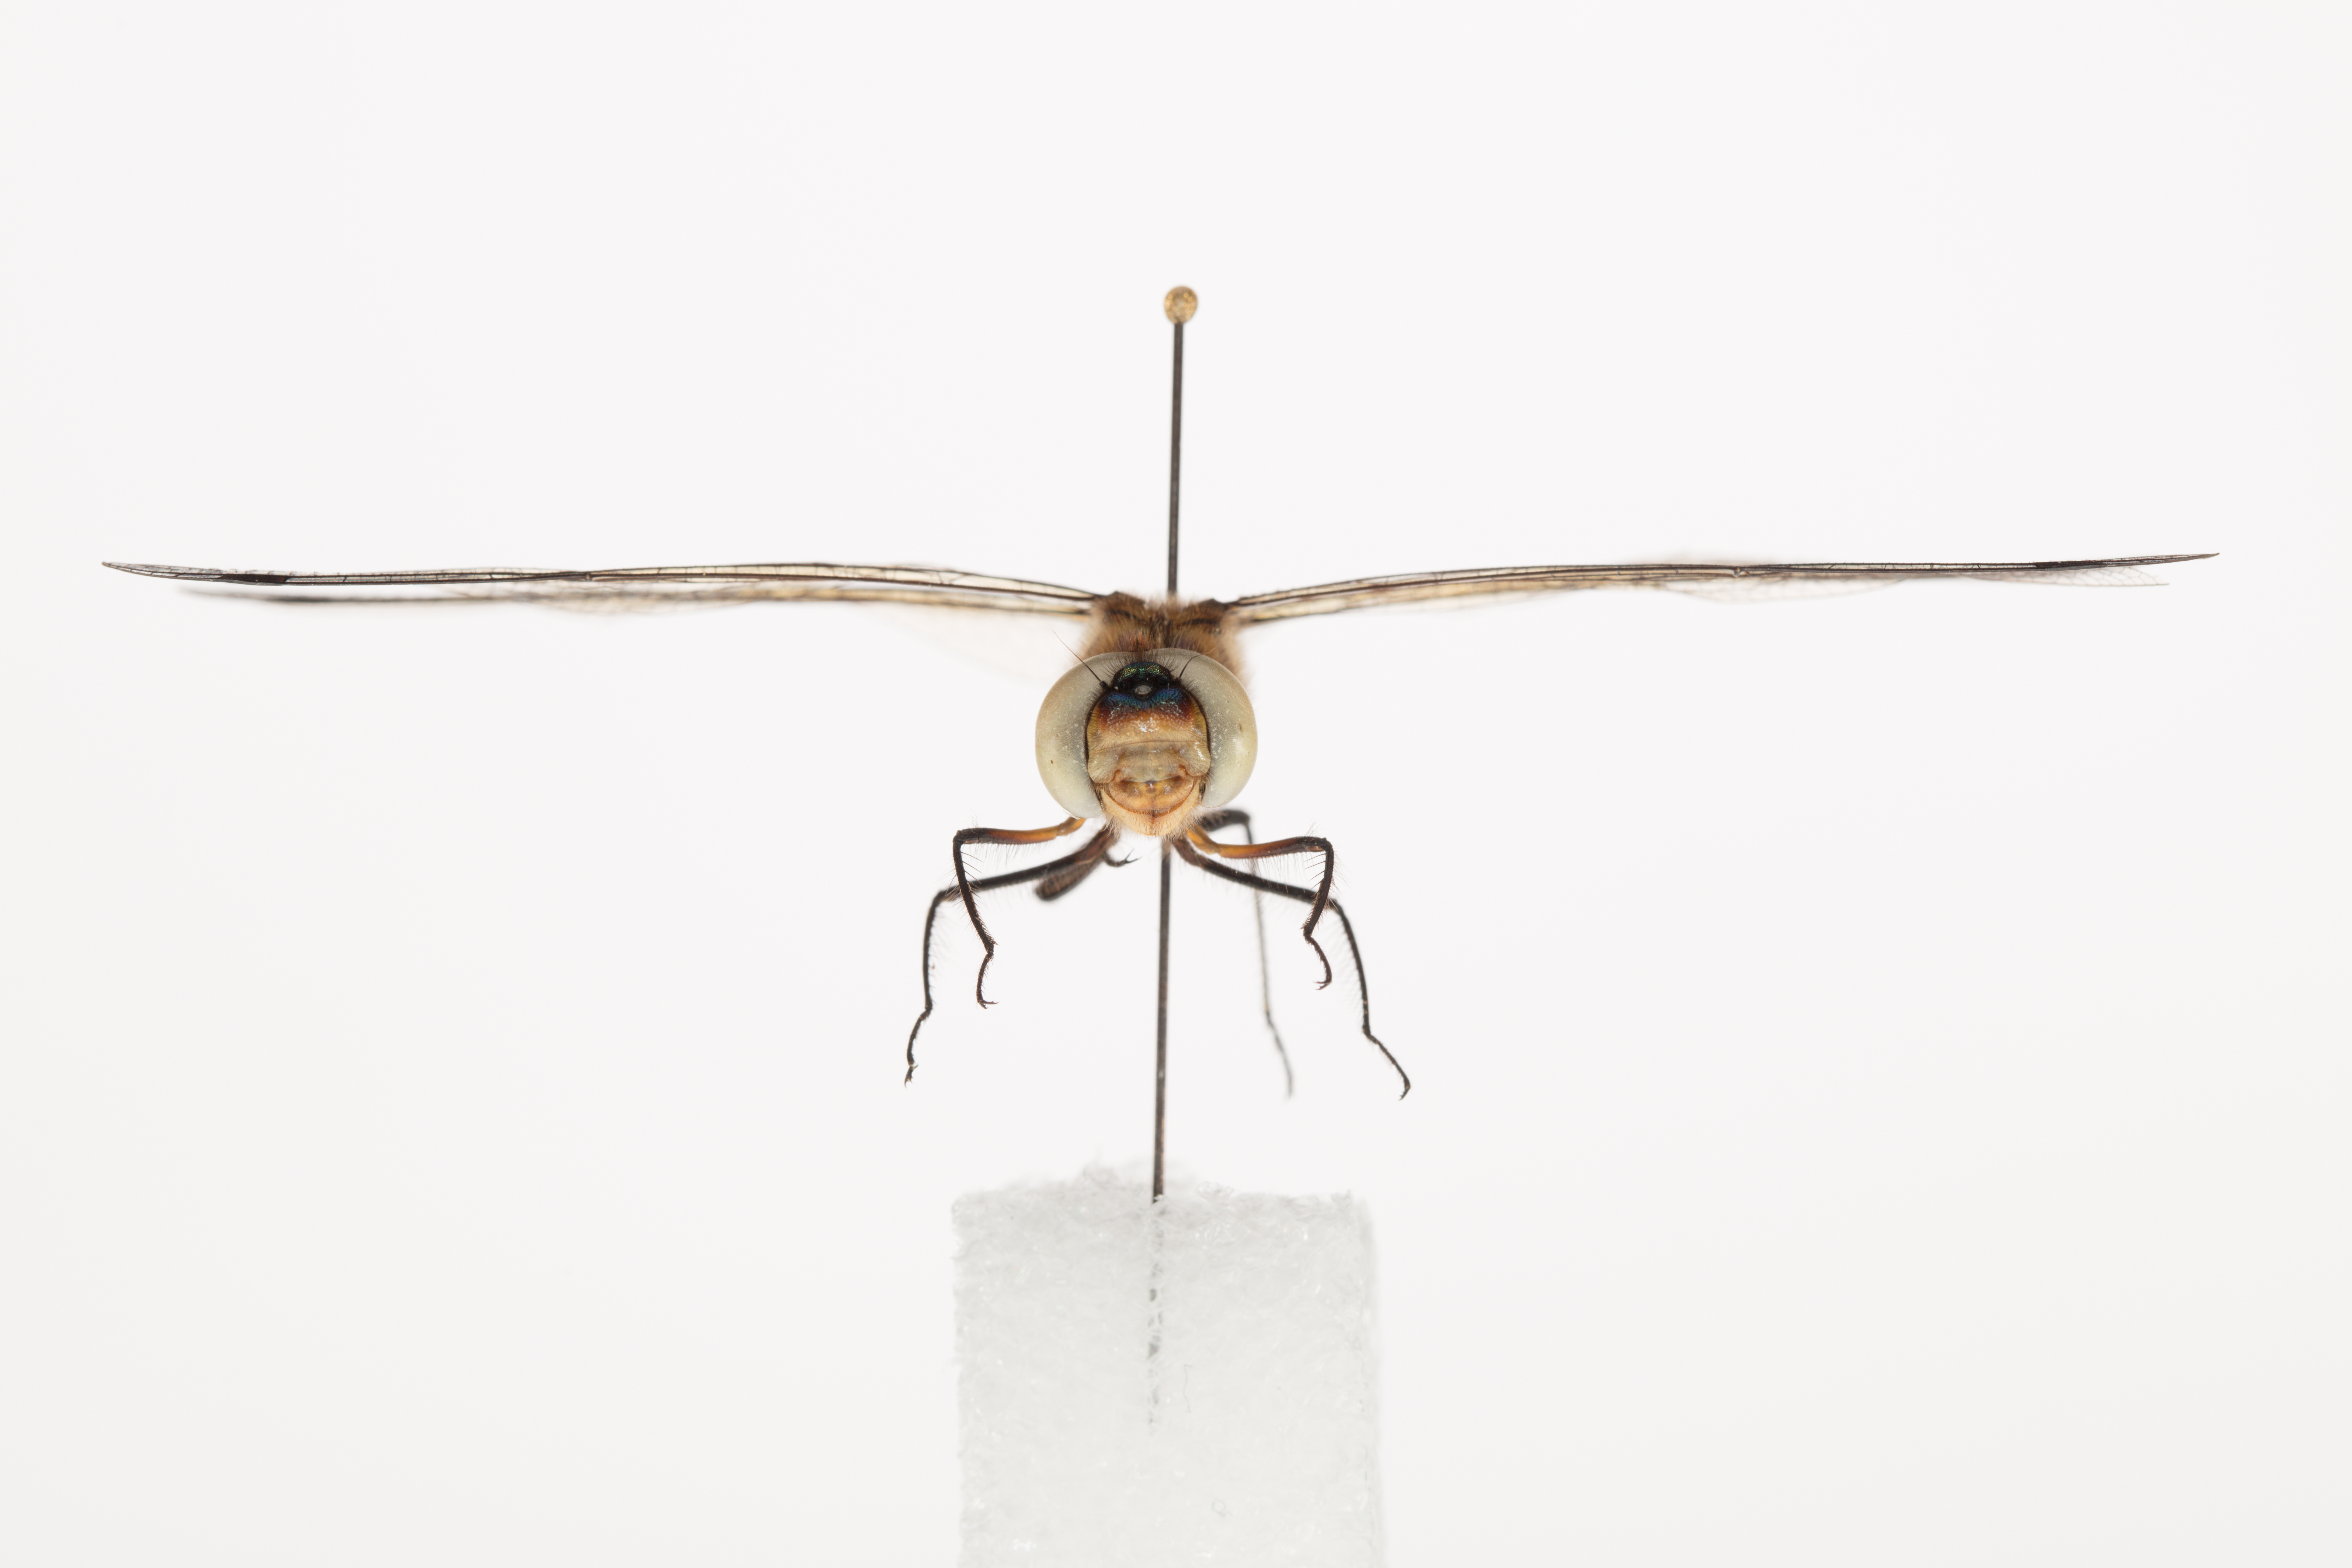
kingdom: Animalia
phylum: Arthropoda
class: Insecta
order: Odonata
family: Corduliidae
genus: Hemicordulia
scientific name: Hemicordulia australiae
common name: Sentry dragonfly
